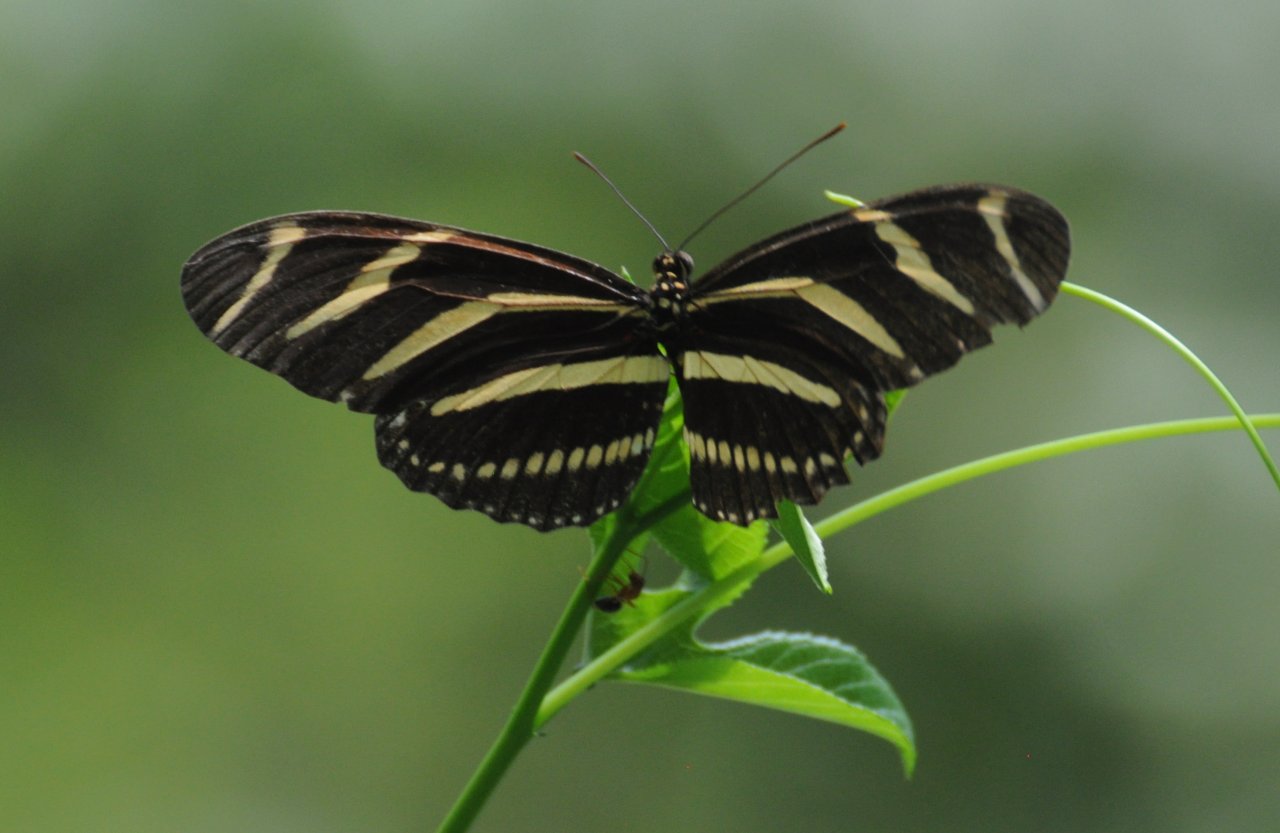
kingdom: Animalia
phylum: Arthropoda
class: Insecta
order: Lepidoptera
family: Nymphalidae
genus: Heliconius
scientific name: Heliconius charithonia
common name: Zebra Longwing
